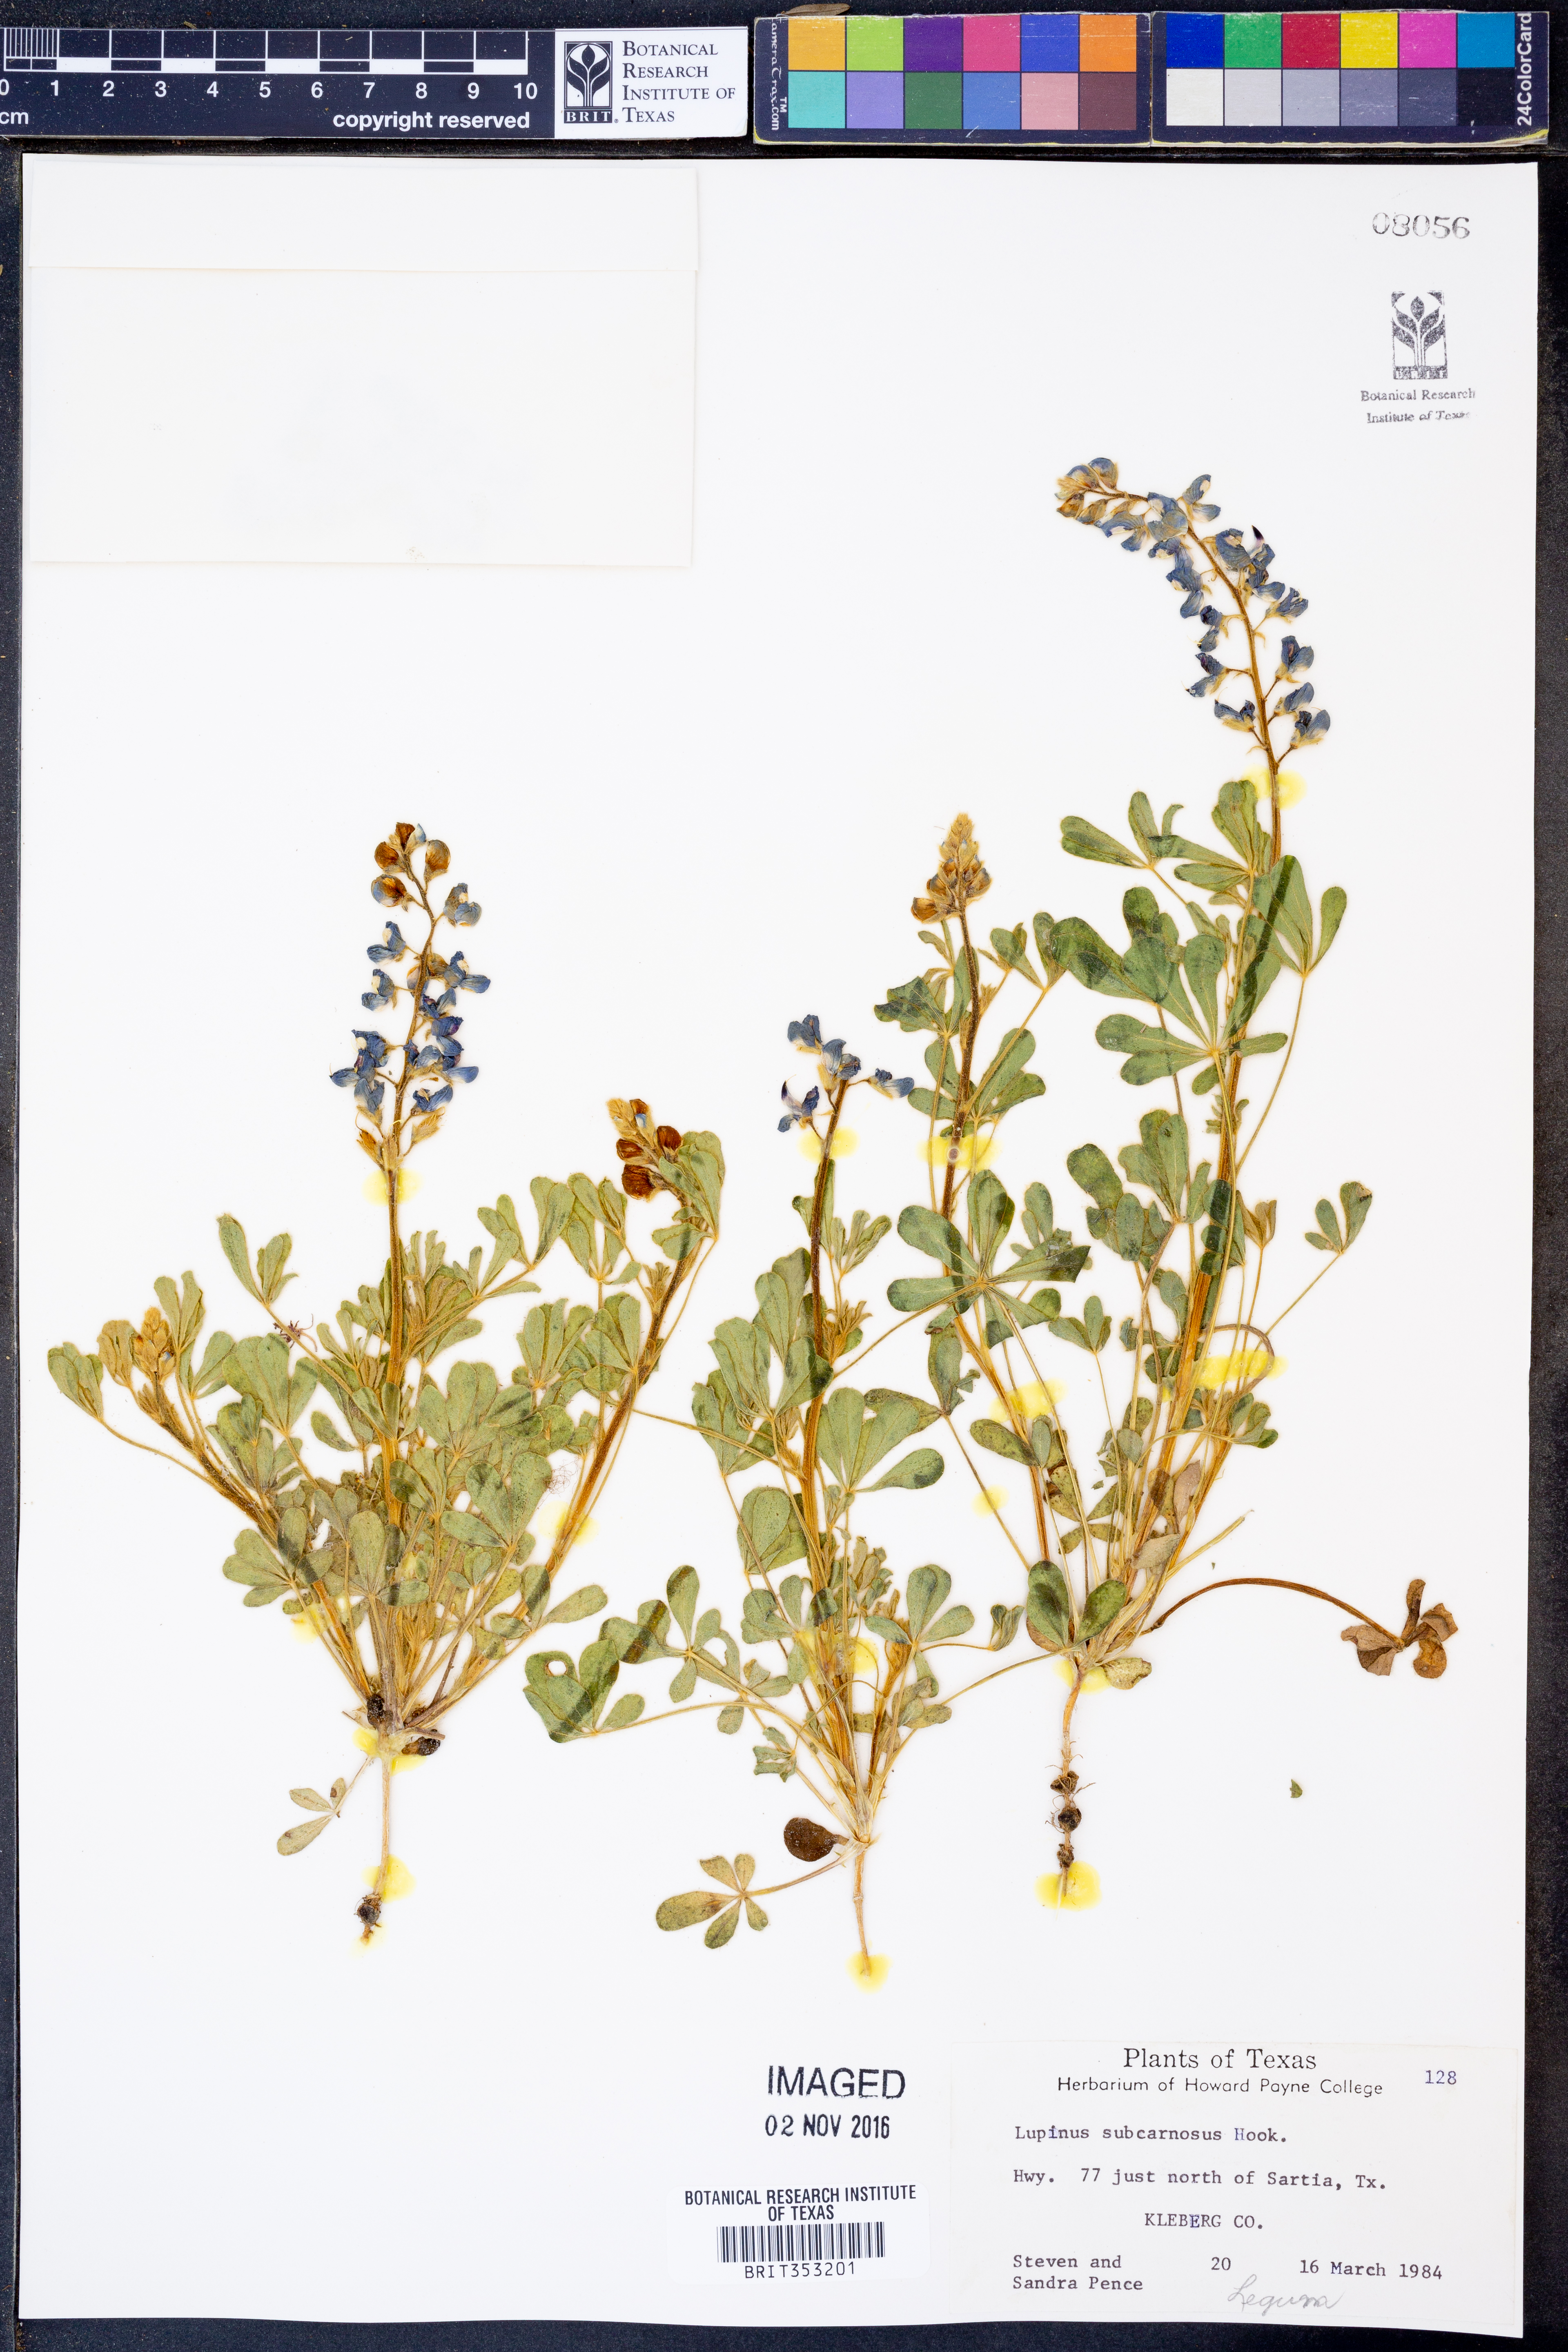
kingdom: Plantae
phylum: Tracheophyta
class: Magnoliopsida
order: Fabales
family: Fabaceae
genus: Lupinus
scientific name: Lupinus subcarnosus
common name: Texas bluebonnet
